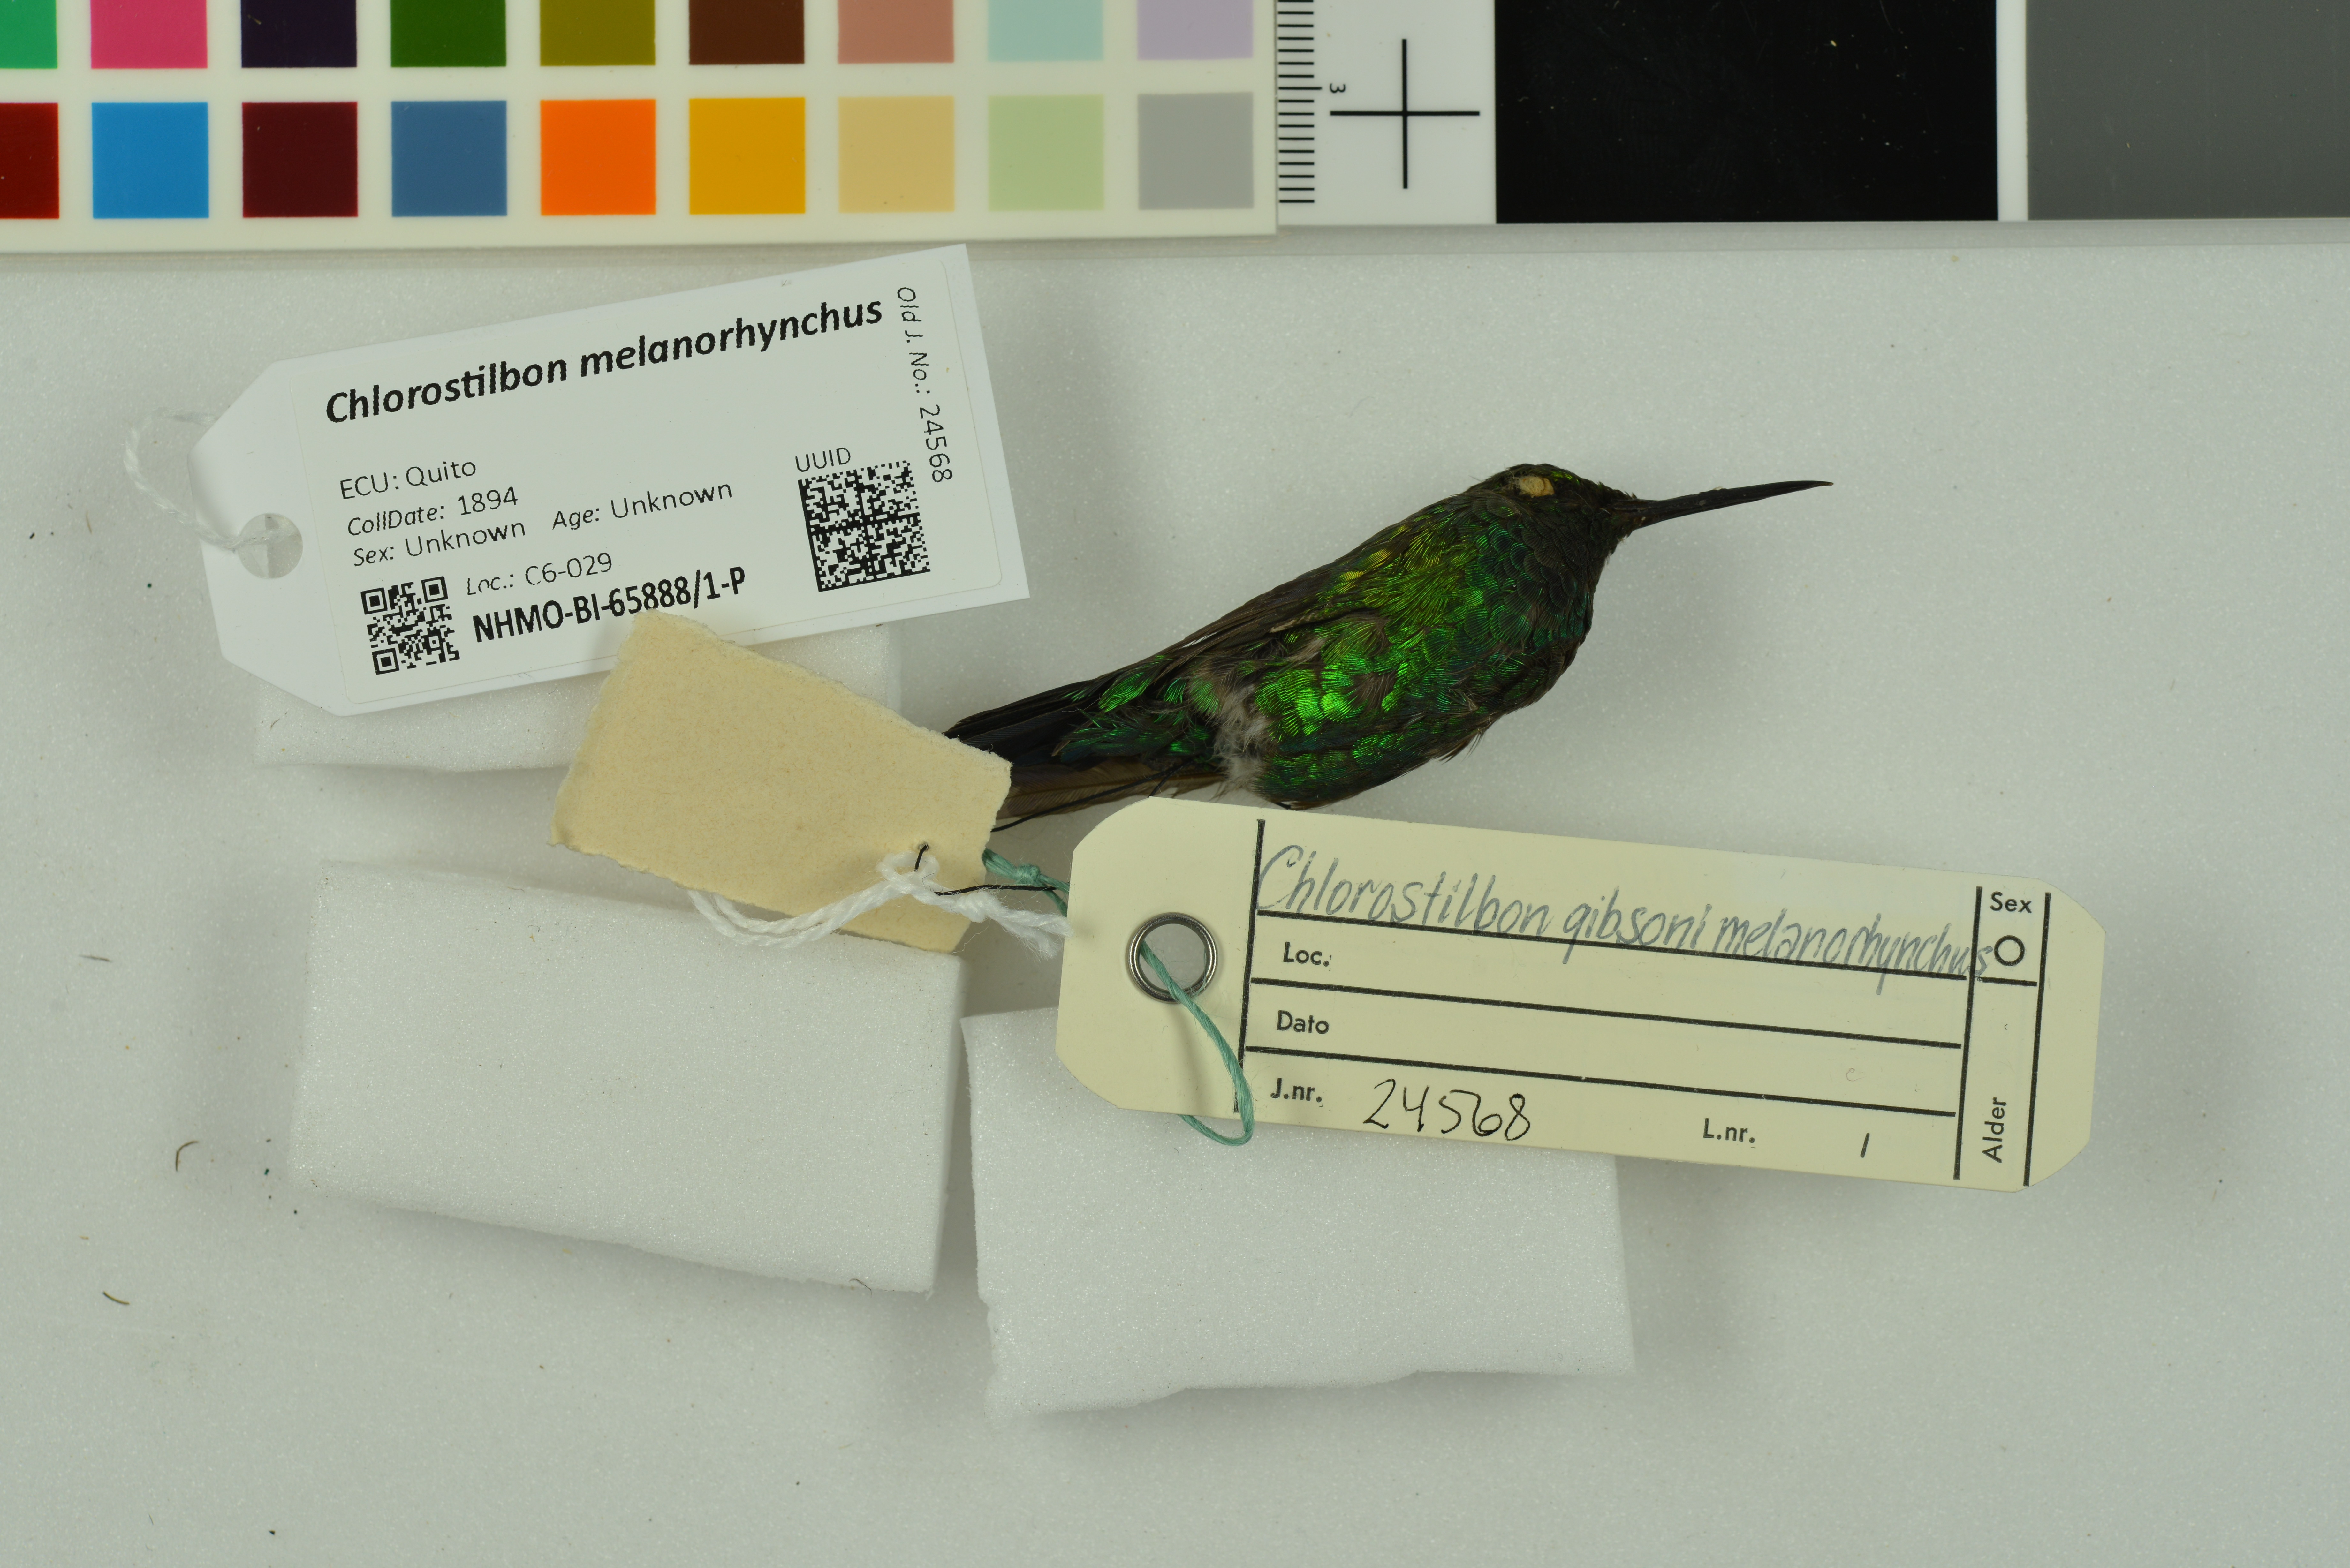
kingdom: Animalia
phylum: Chordata
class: Aves
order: Apodiformes
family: Trochilidae
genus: Chlorostilbon
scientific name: Chlorostilbon melanorhynchus
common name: Western emerald
